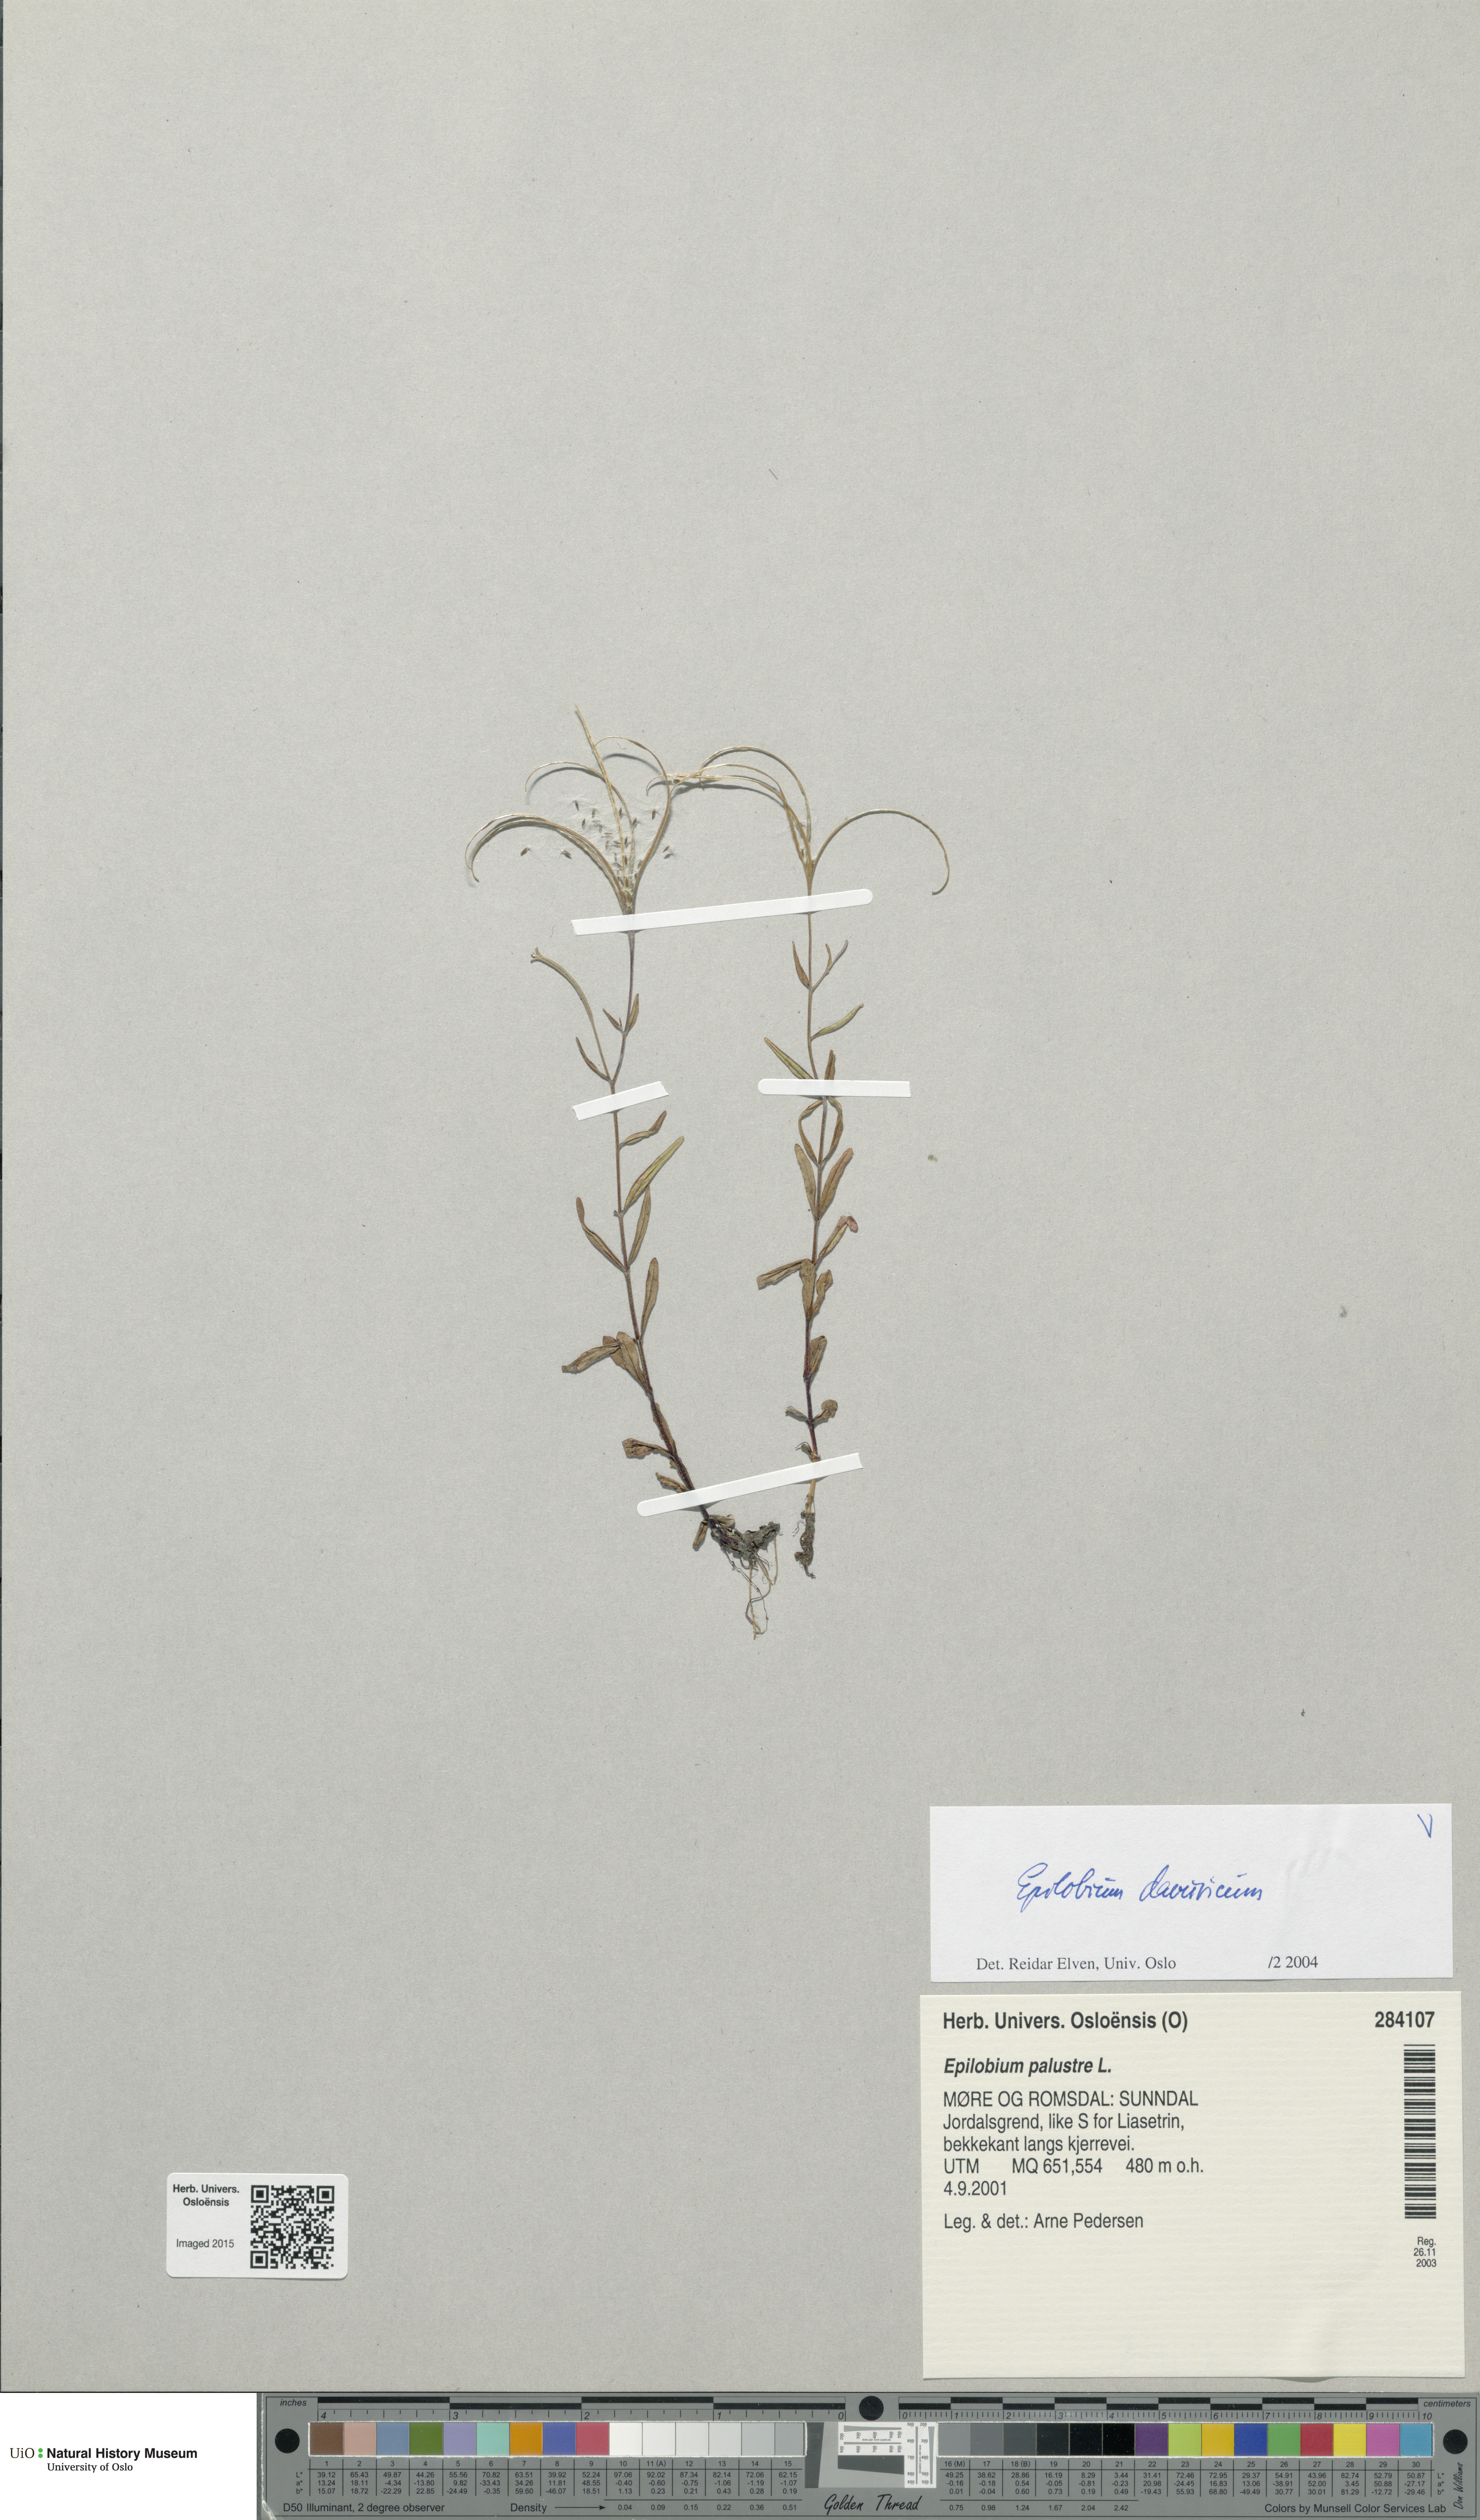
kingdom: Plantae
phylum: Tracheophyta
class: Magnoliopsida
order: Myrtales
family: Onagraceae
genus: Epilobium
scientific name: Epilobium davuricum
